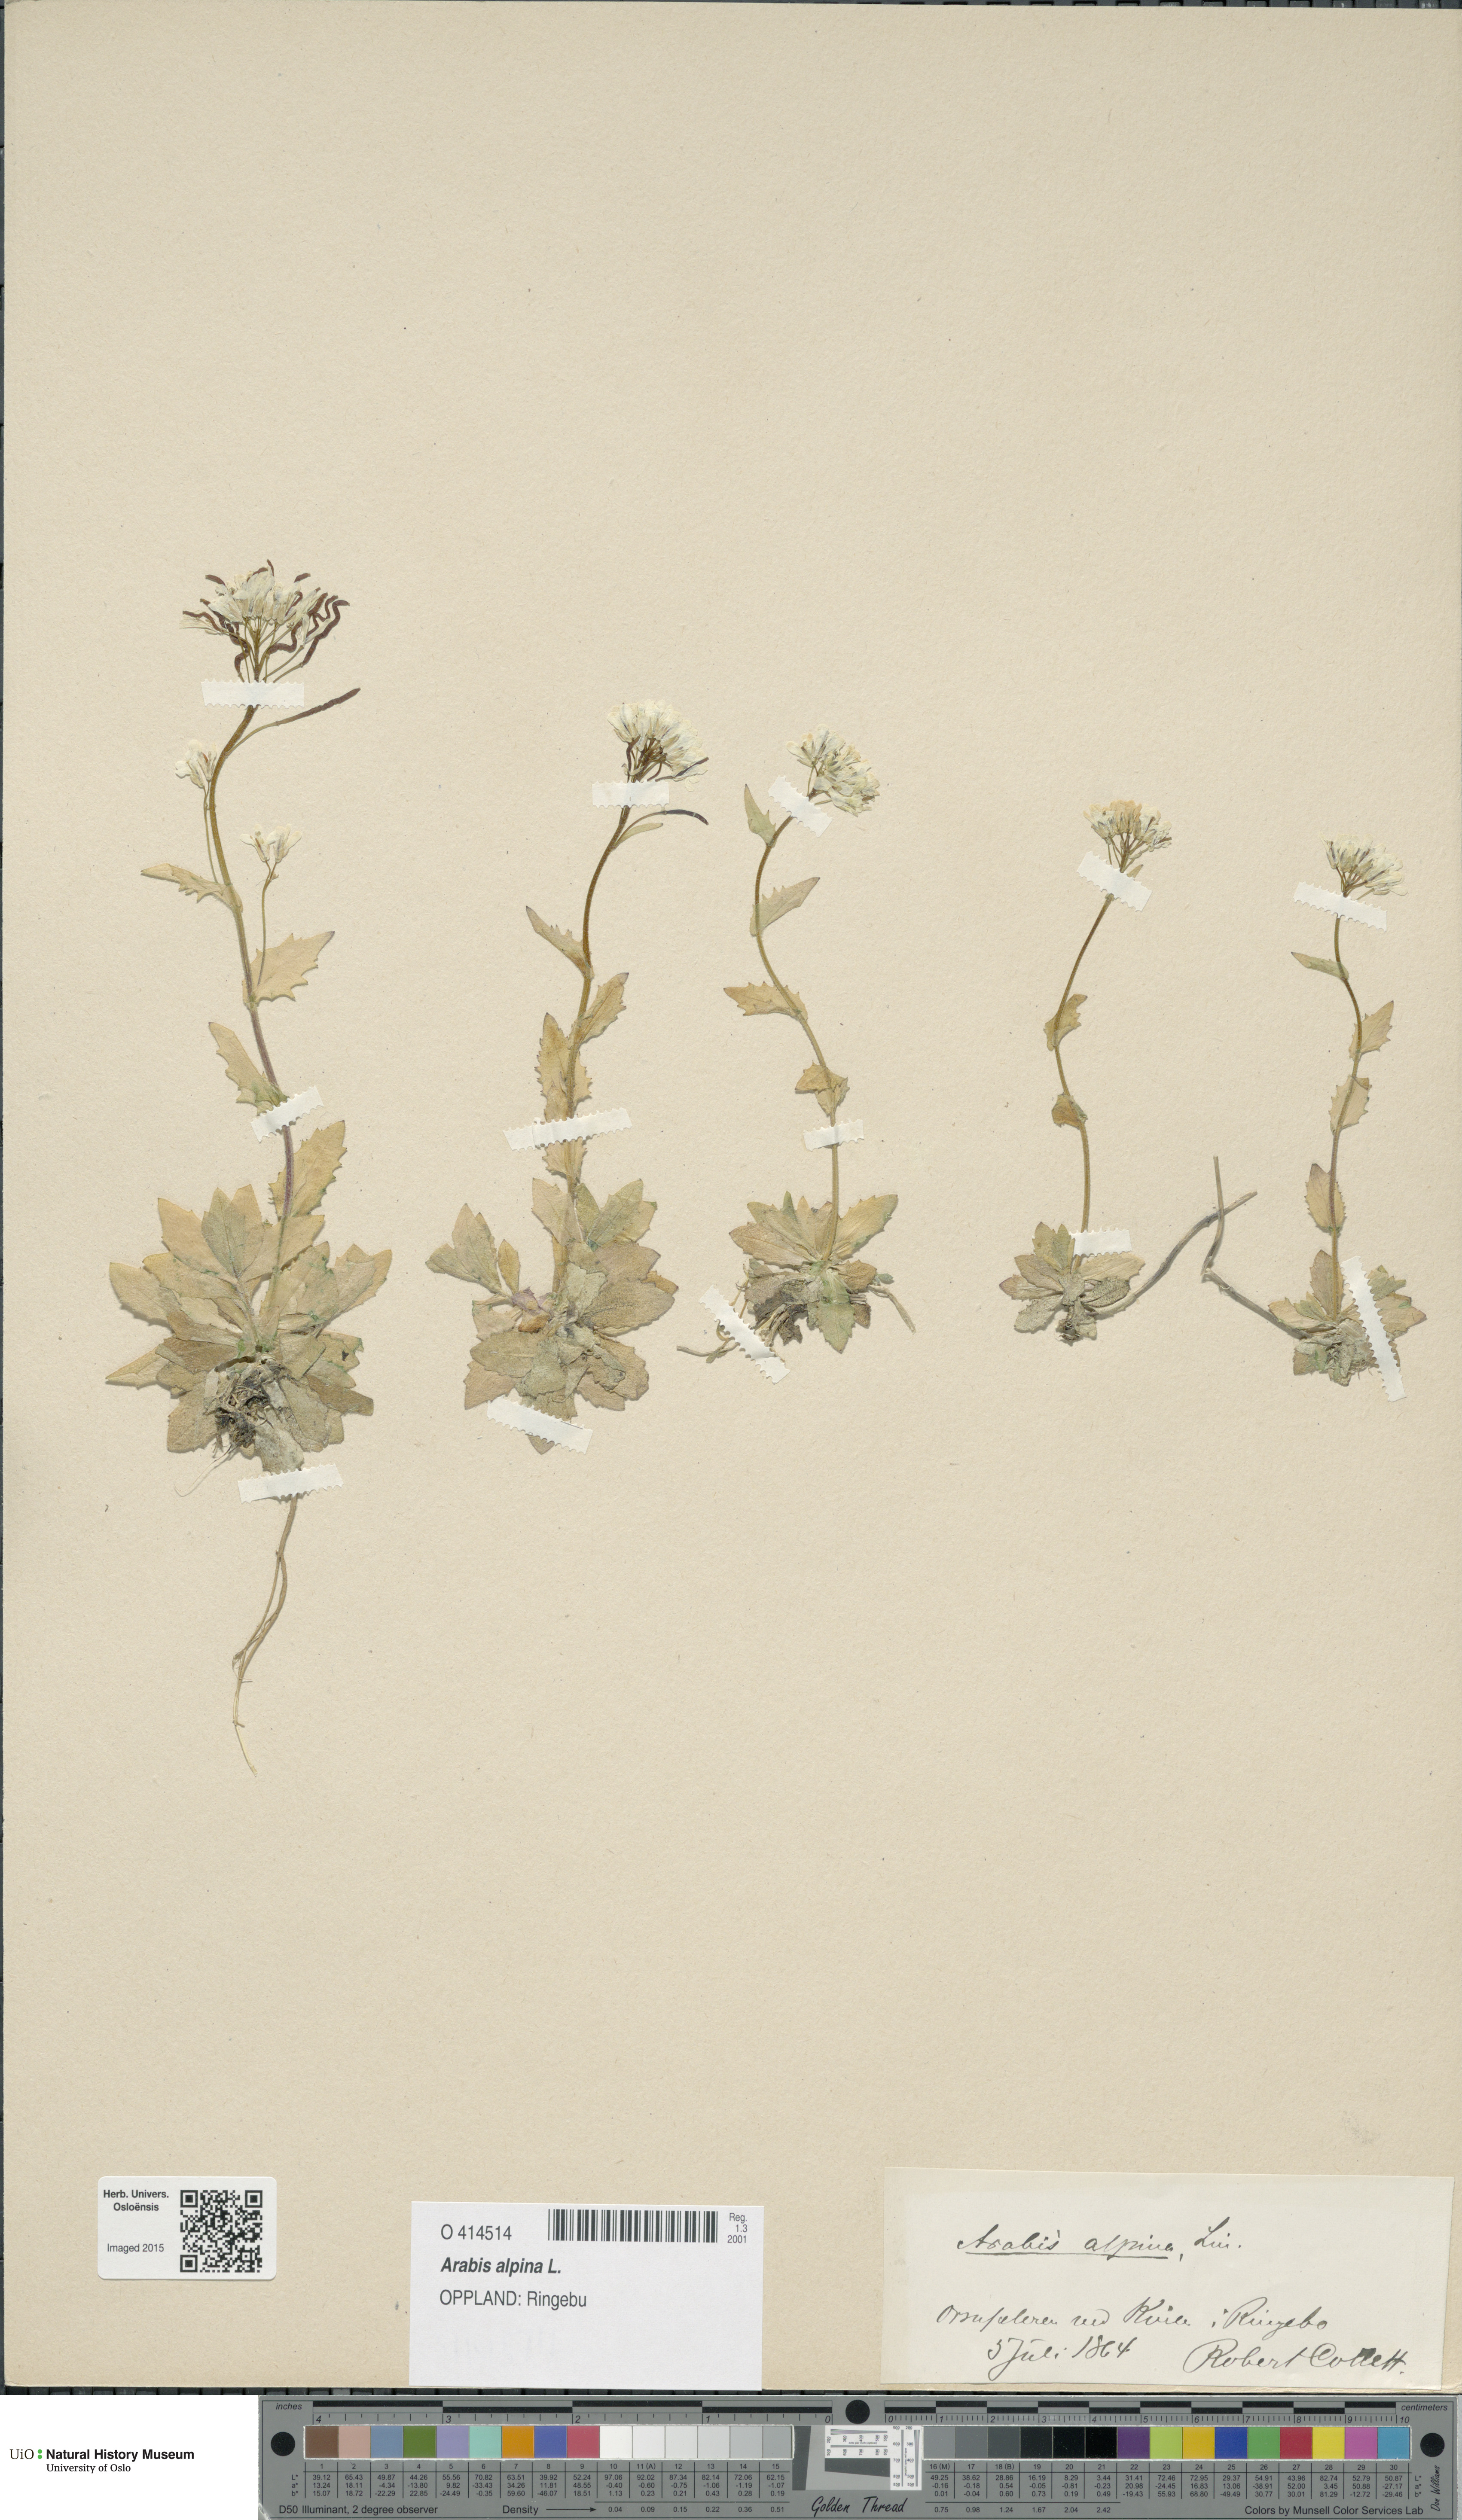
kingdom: Plantae
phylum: Tracheophyta
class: Magnoliopsida
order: Brassicales
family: Brassicaceae
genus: Arabis
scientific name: Arabis alpina
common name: Alpine rock-cress
